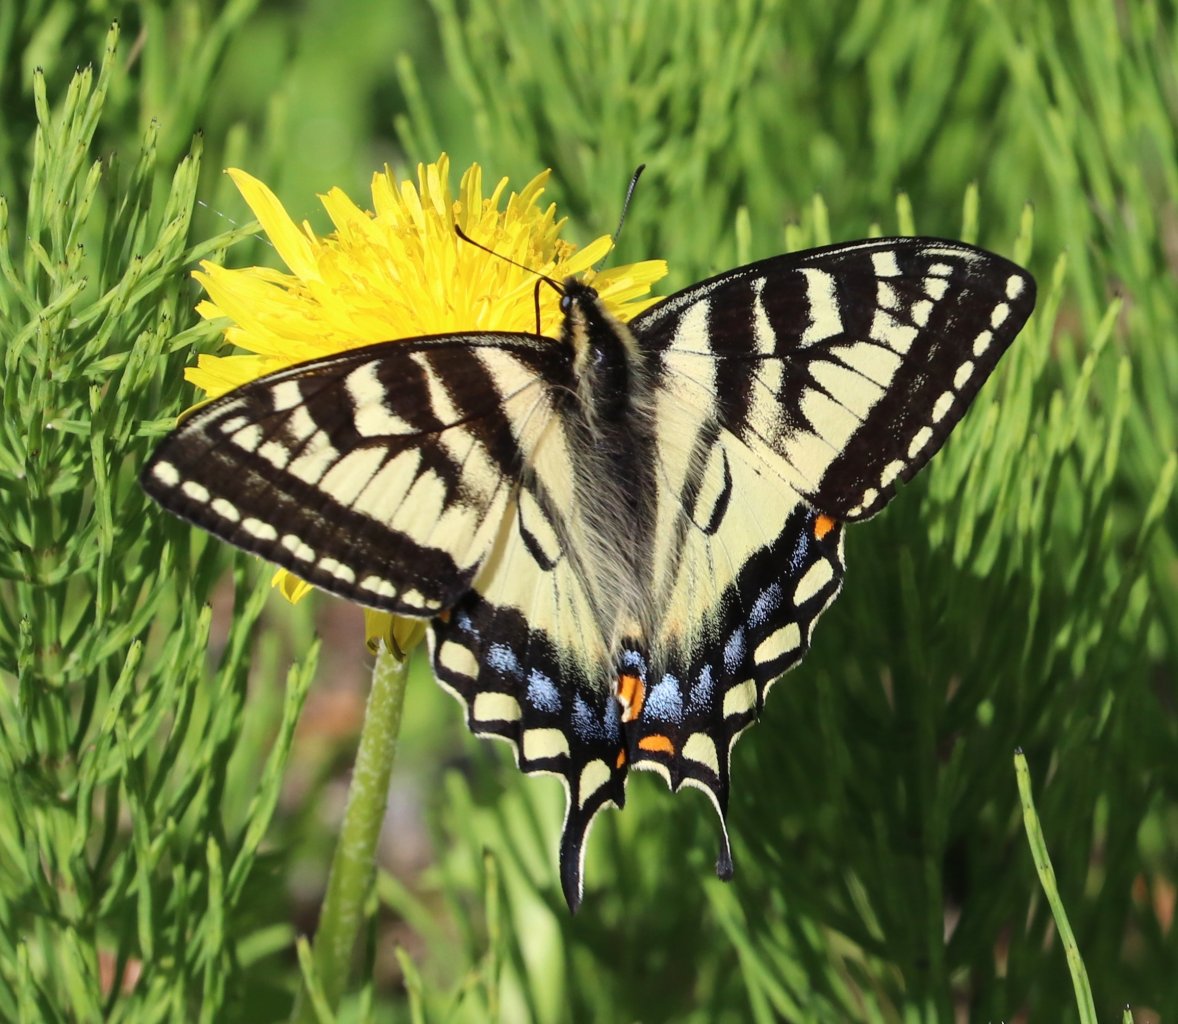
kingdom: Animalia
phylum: Arthropoda
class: Insecta
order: Lepidoptera
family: Papilionidae
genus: Pterourus
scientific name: Pterourus canadensis
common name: Canadian Tiger Swallowtail
